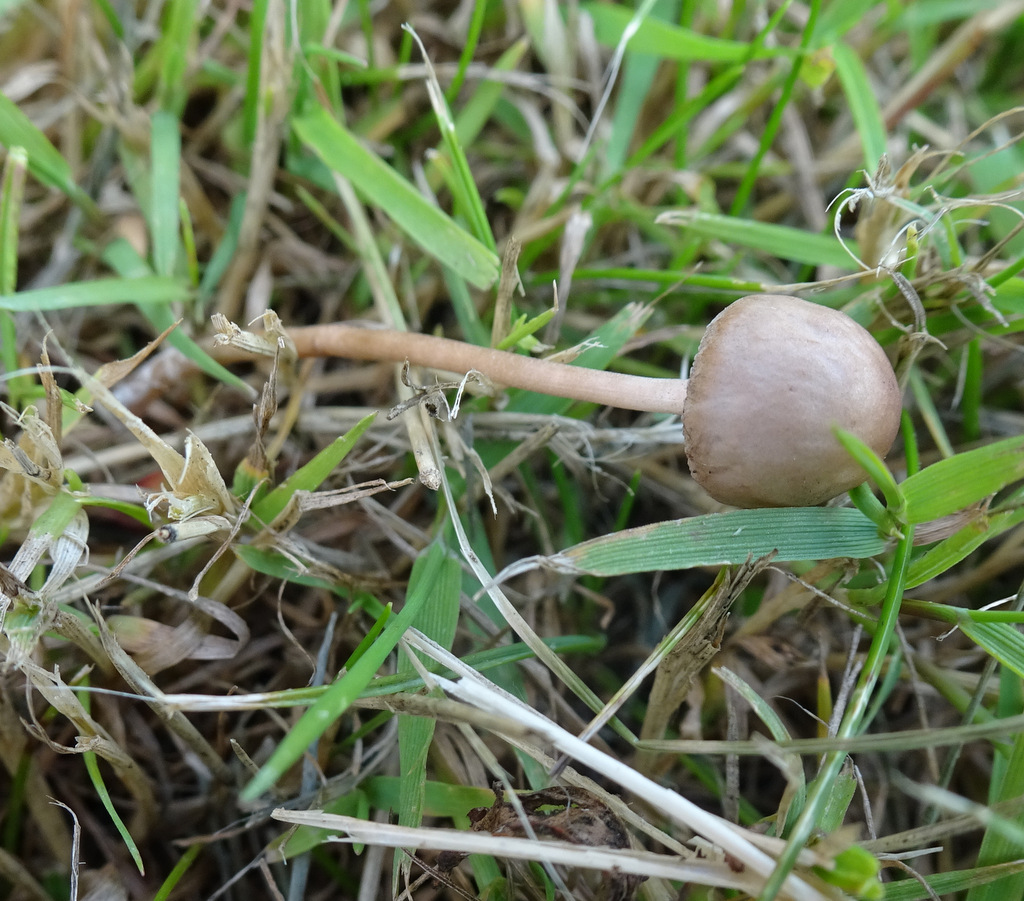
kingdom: Fungi
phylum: Basidiomycota
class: Agaricomycetes
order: Agaricales
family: Bolbitiaceae
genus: Panaeolina
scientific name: Panaeolina foenisecii
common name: høslætsvamp
